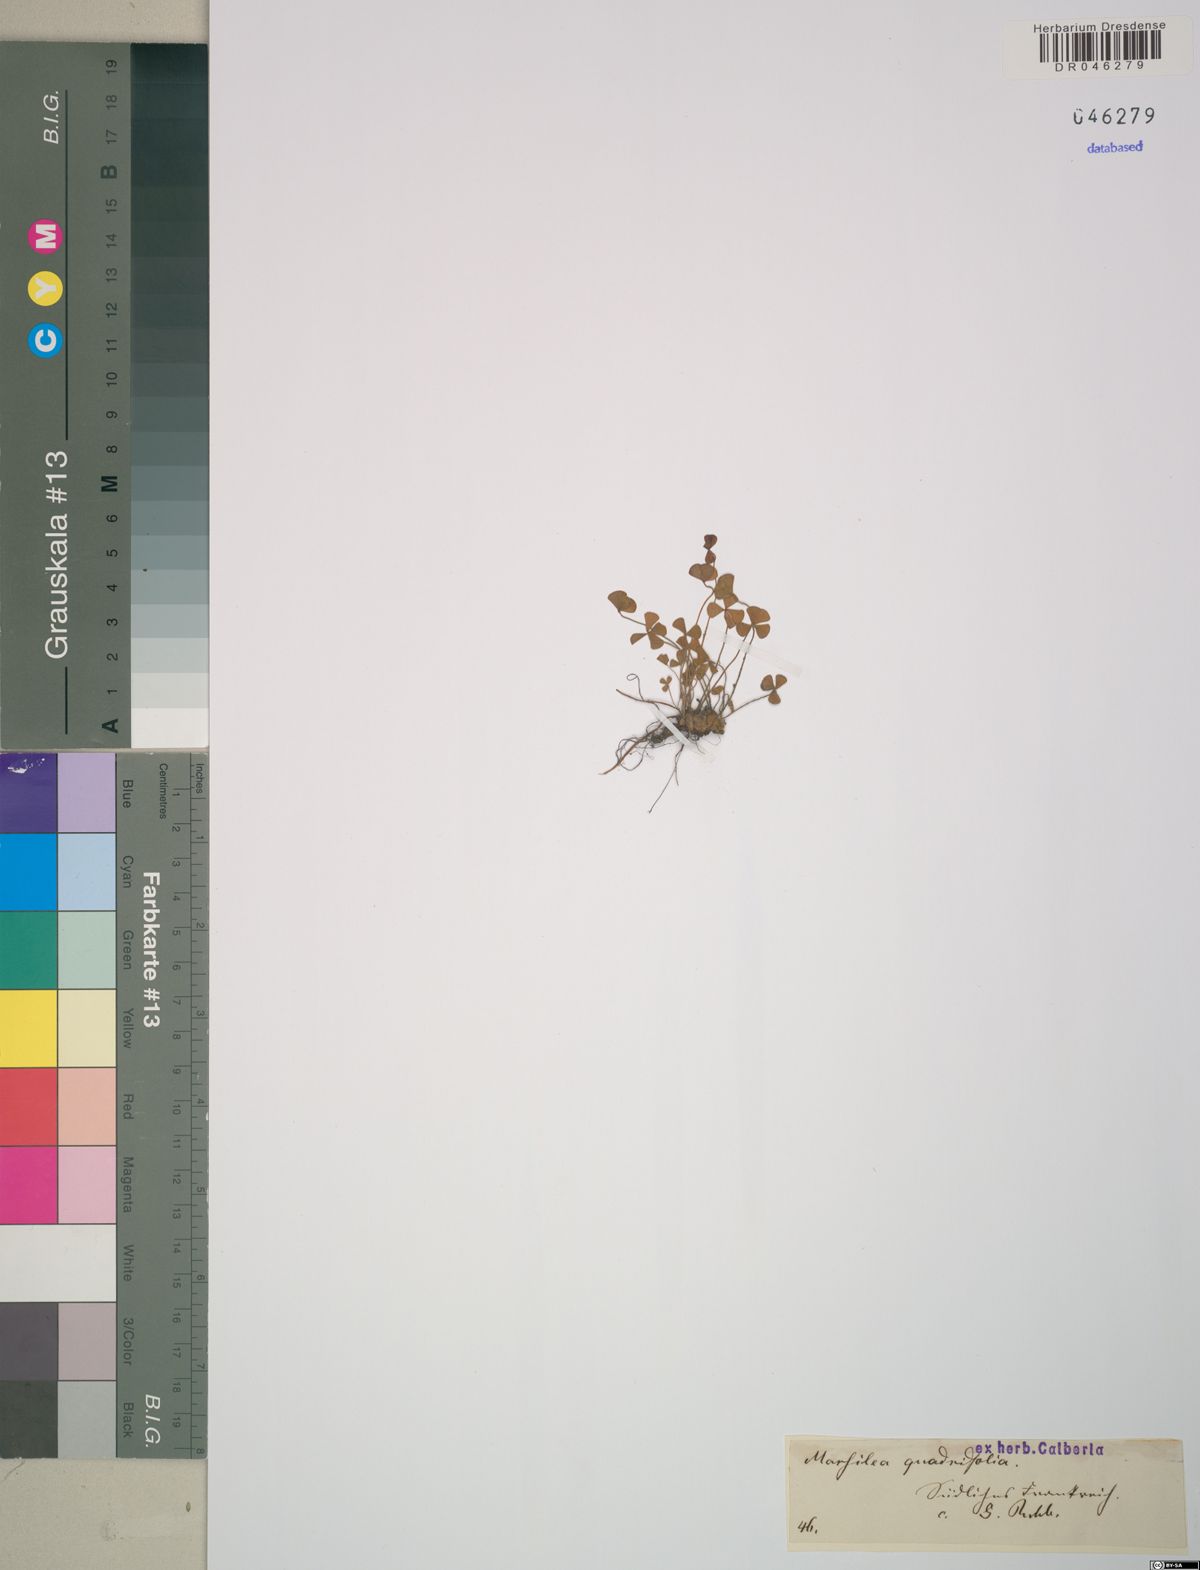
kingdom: Plantae
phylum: Tracheophyta
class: Polypodiopsida
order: Salviniales
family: Marsileaceae
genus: Marsilea
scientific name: Marsilea quadrifolia
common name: Water shamrock
